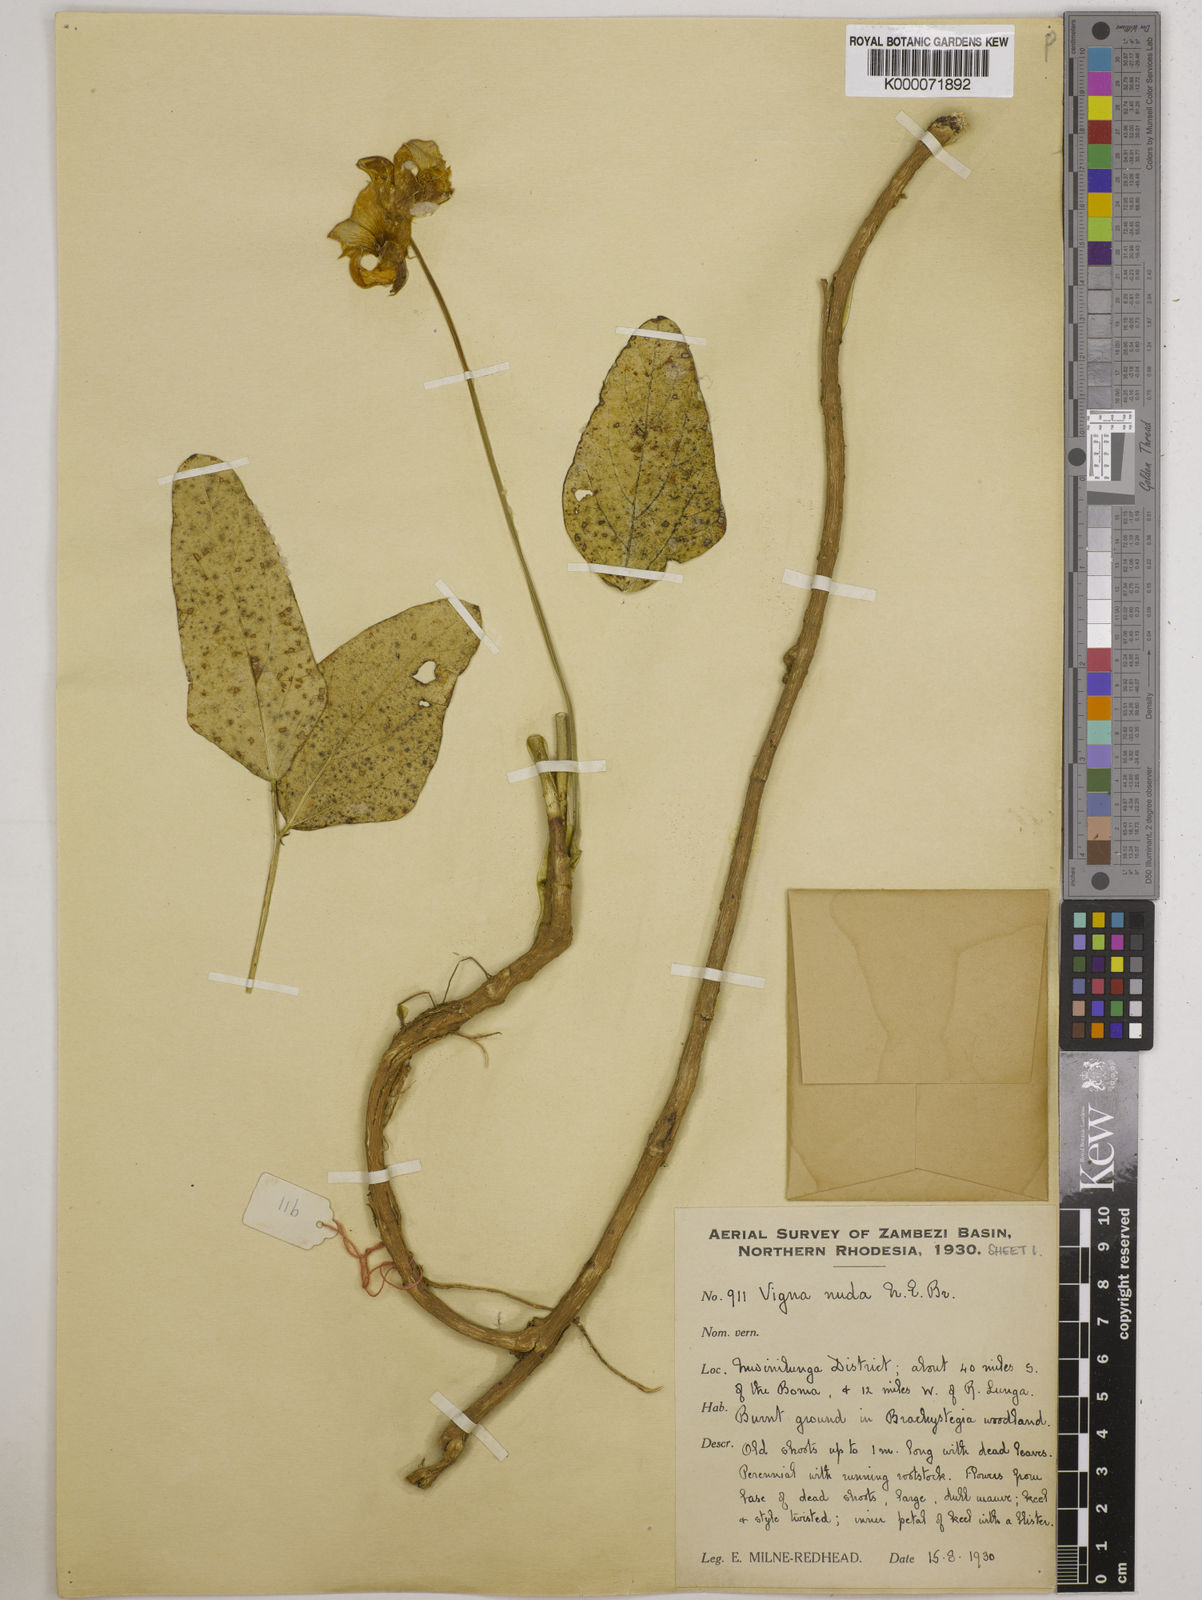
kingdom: Plantae
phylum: Tracheophyta
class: Magnoliopsida
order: Fabales
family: Fabaceae
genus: Vigna
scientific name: Vigna antunesii
